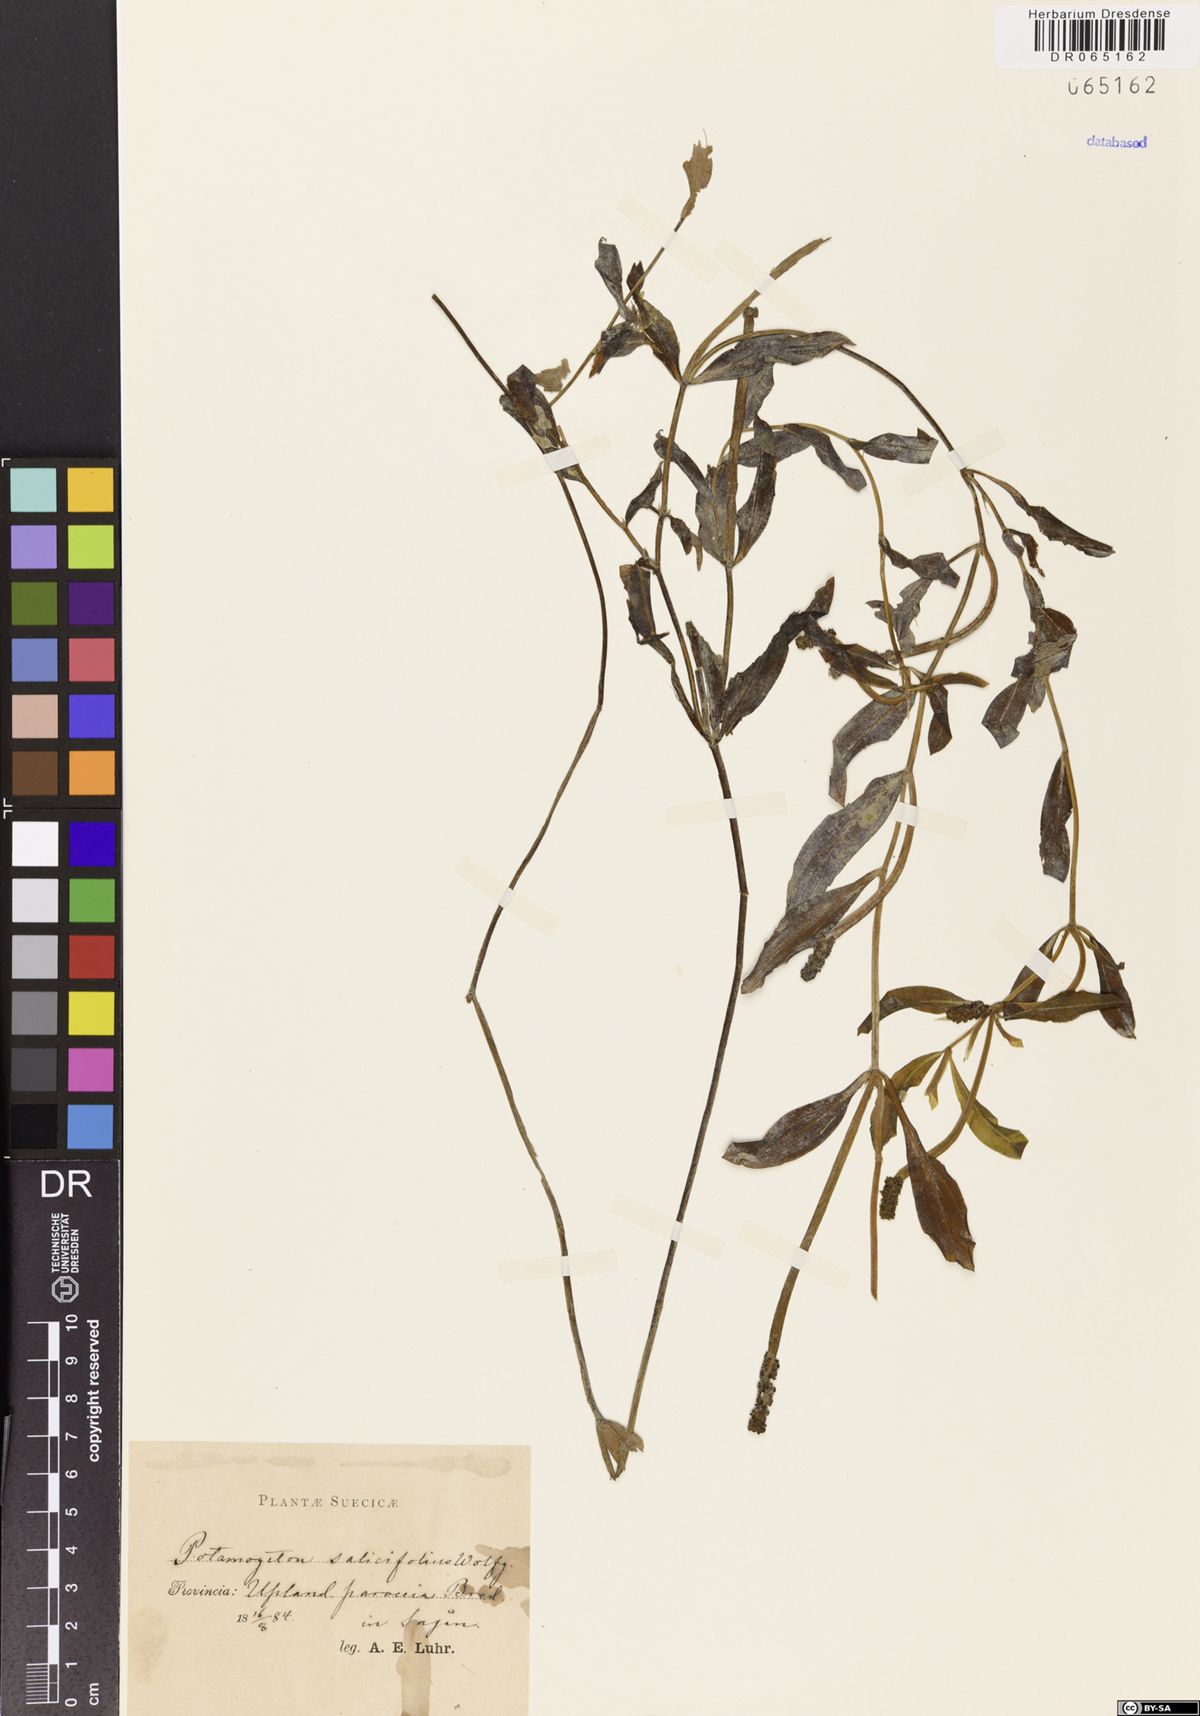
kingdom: Plantae
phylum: Tracheophyta
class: Liliopsida
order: Alismatales
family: Potamogetonaceae
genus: Potamogeton
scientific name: Potamogeton salicifolius
